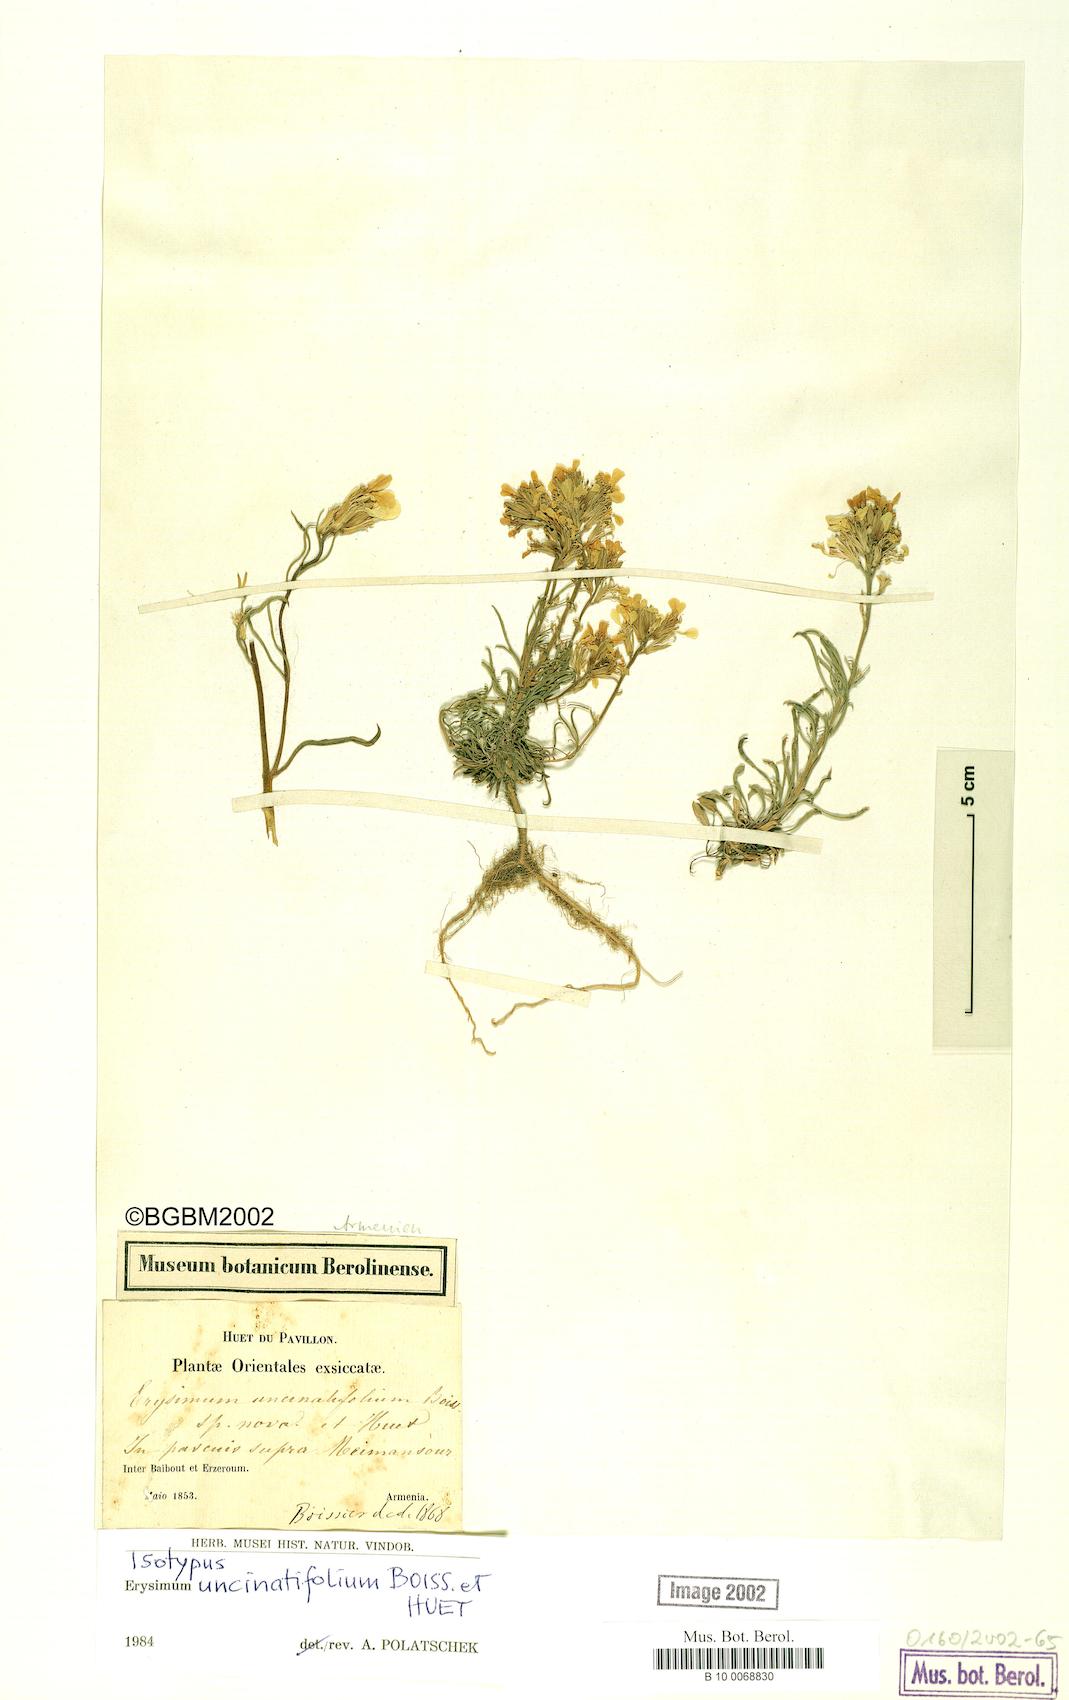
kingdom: Plantae
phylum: Tracheophyta
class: Magnoliopsida
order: Brassicales
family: Brassicaceae
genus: Erysimum
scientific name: Erysimum uncinatifolium
